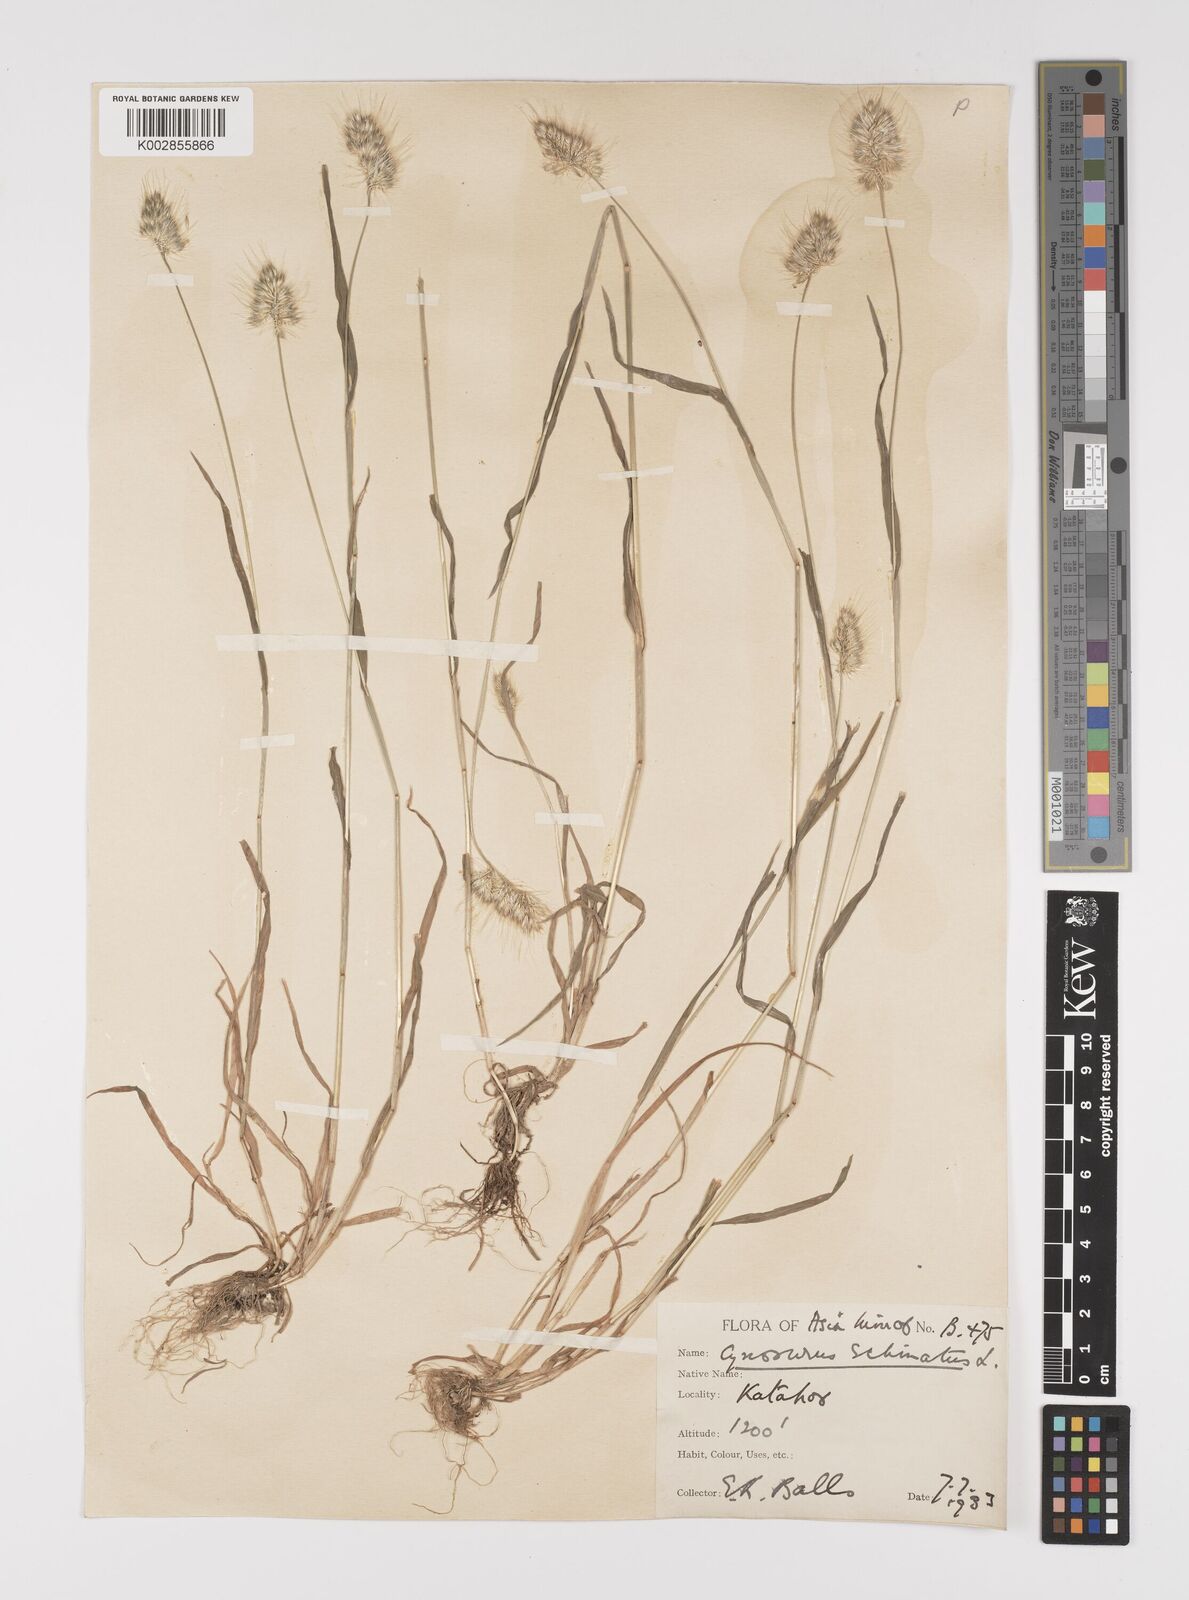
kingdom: Plantae
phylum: Tracheophyta
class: Liliopsida
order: Poales
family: Poaceae
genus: Cynosurus
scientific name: Cynosurus echinatus
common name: Rough dog's-tail
